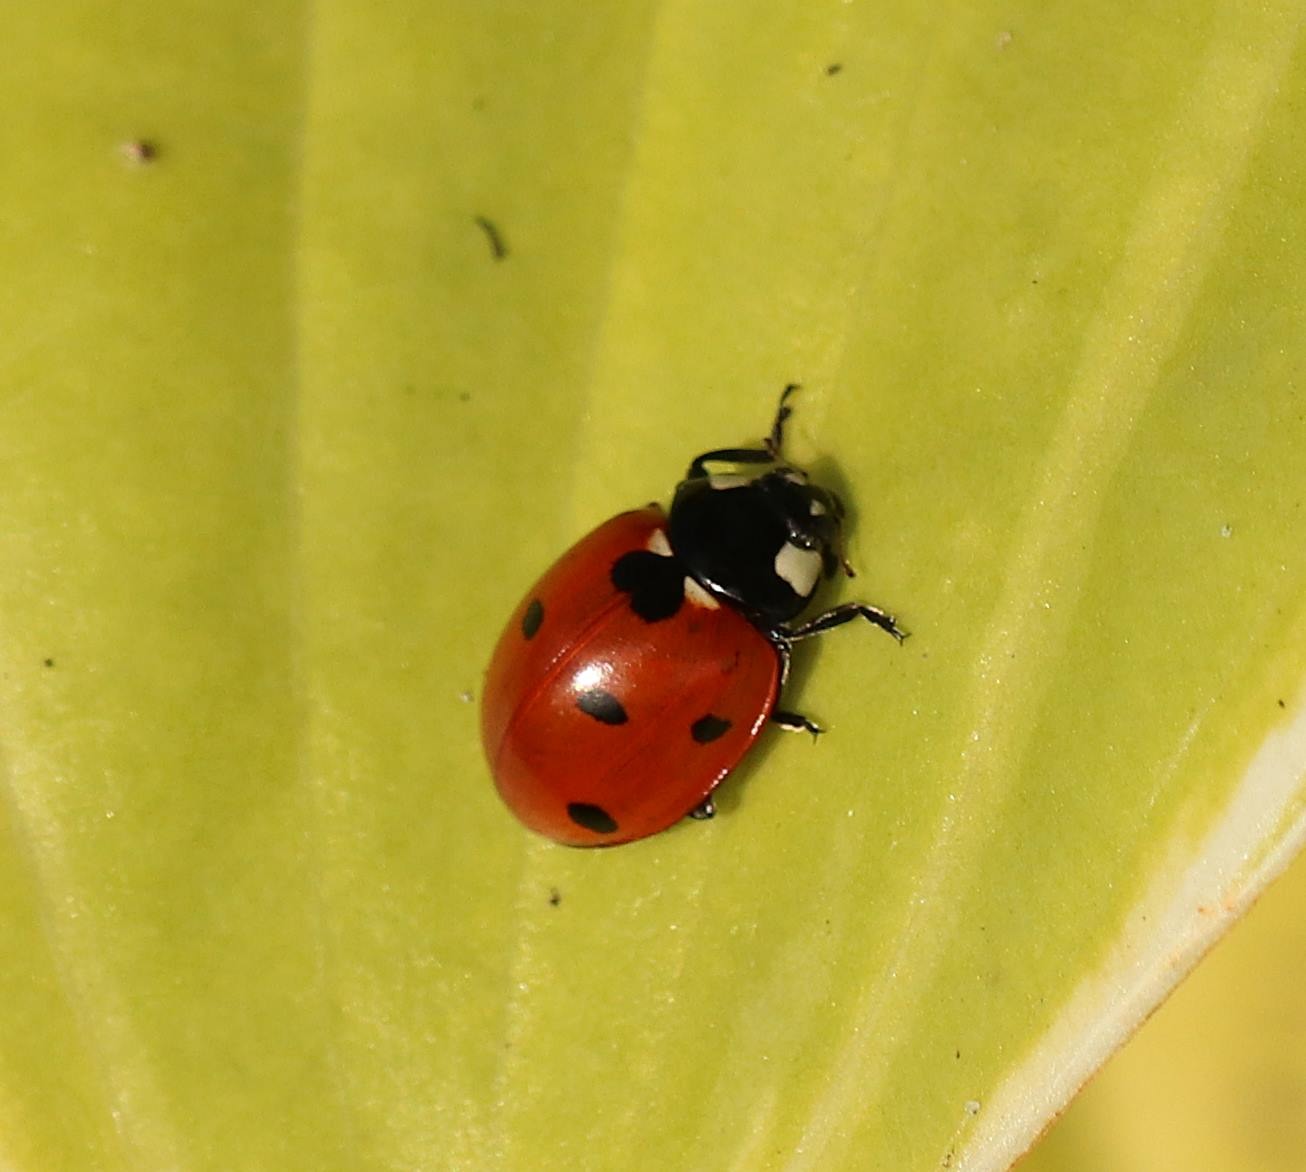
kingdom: Animalia
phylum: Arthropoda
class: Insecta
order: Coleoptera
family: Coccinellidae
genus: Coccinella
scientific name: Coccinella septempunctata
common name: Syvplettet mariehøne
